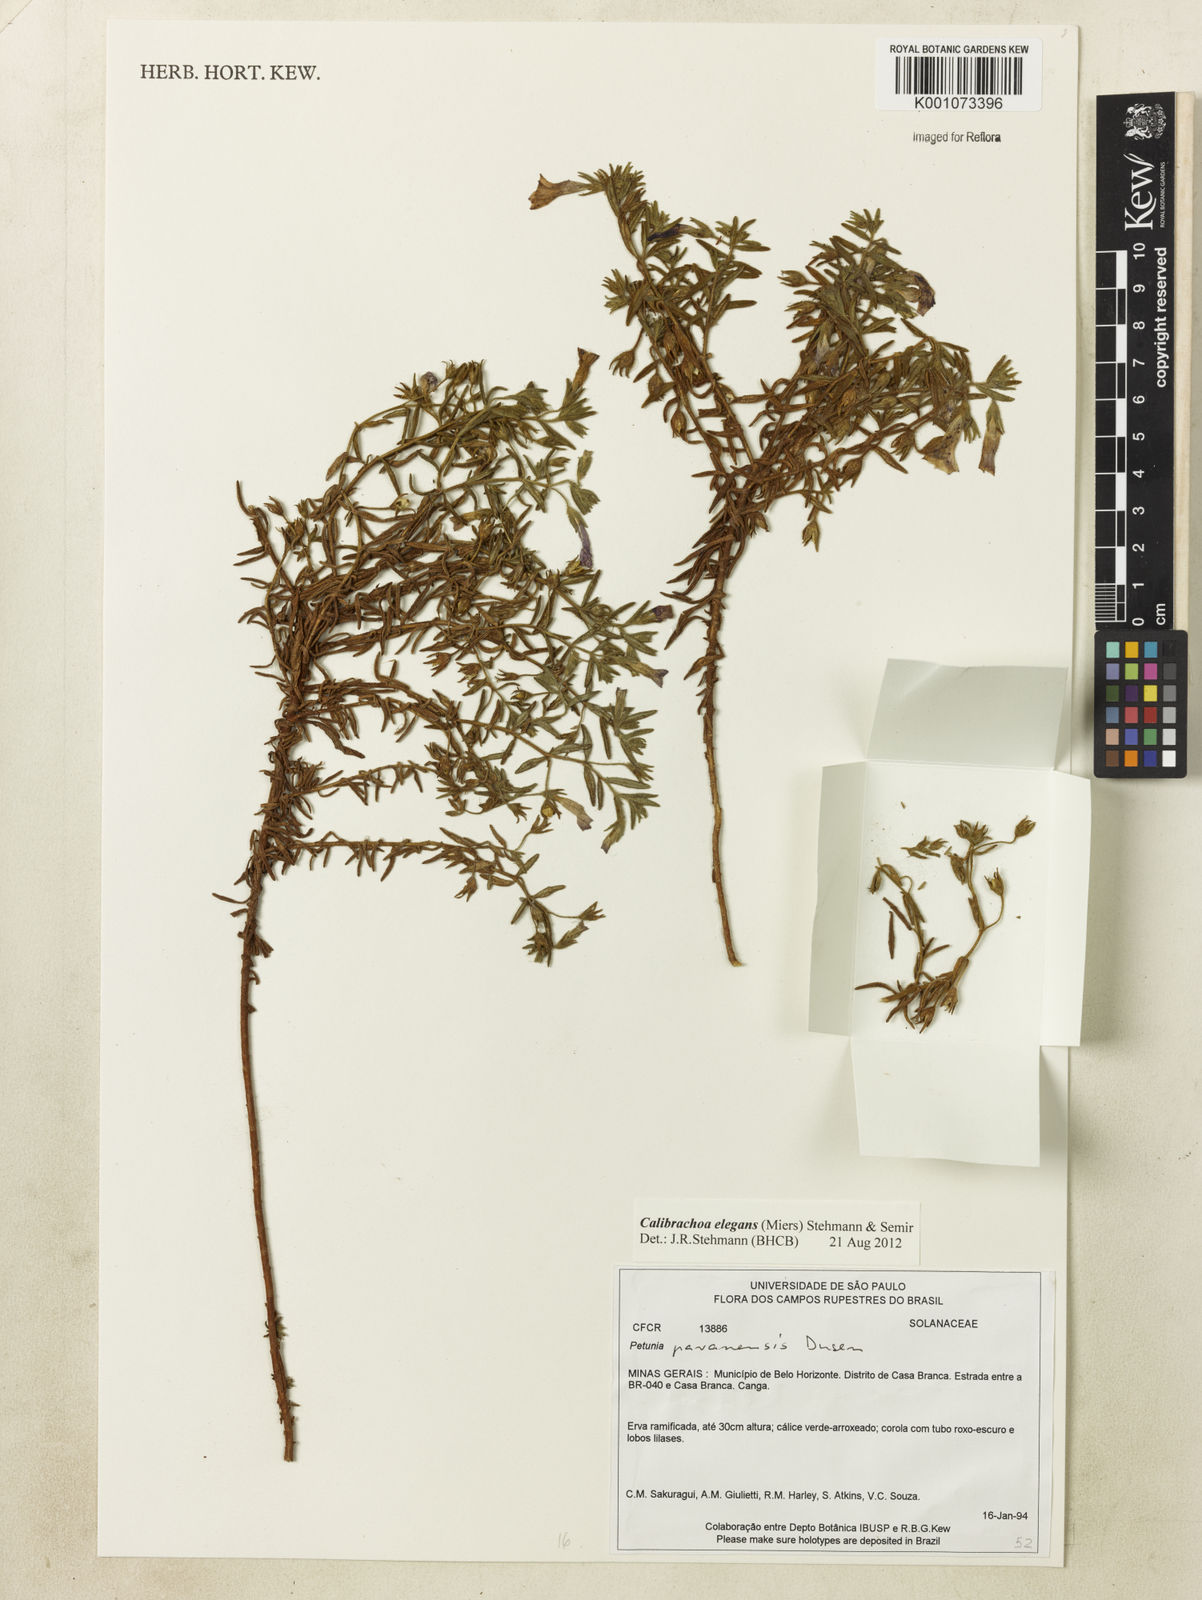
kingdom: Plantae
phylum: Tracheophyta
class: Magnoliopsida
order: Solanales
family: Solanaceae
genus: Calibrachoa
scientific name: Calibrachoa elegans
